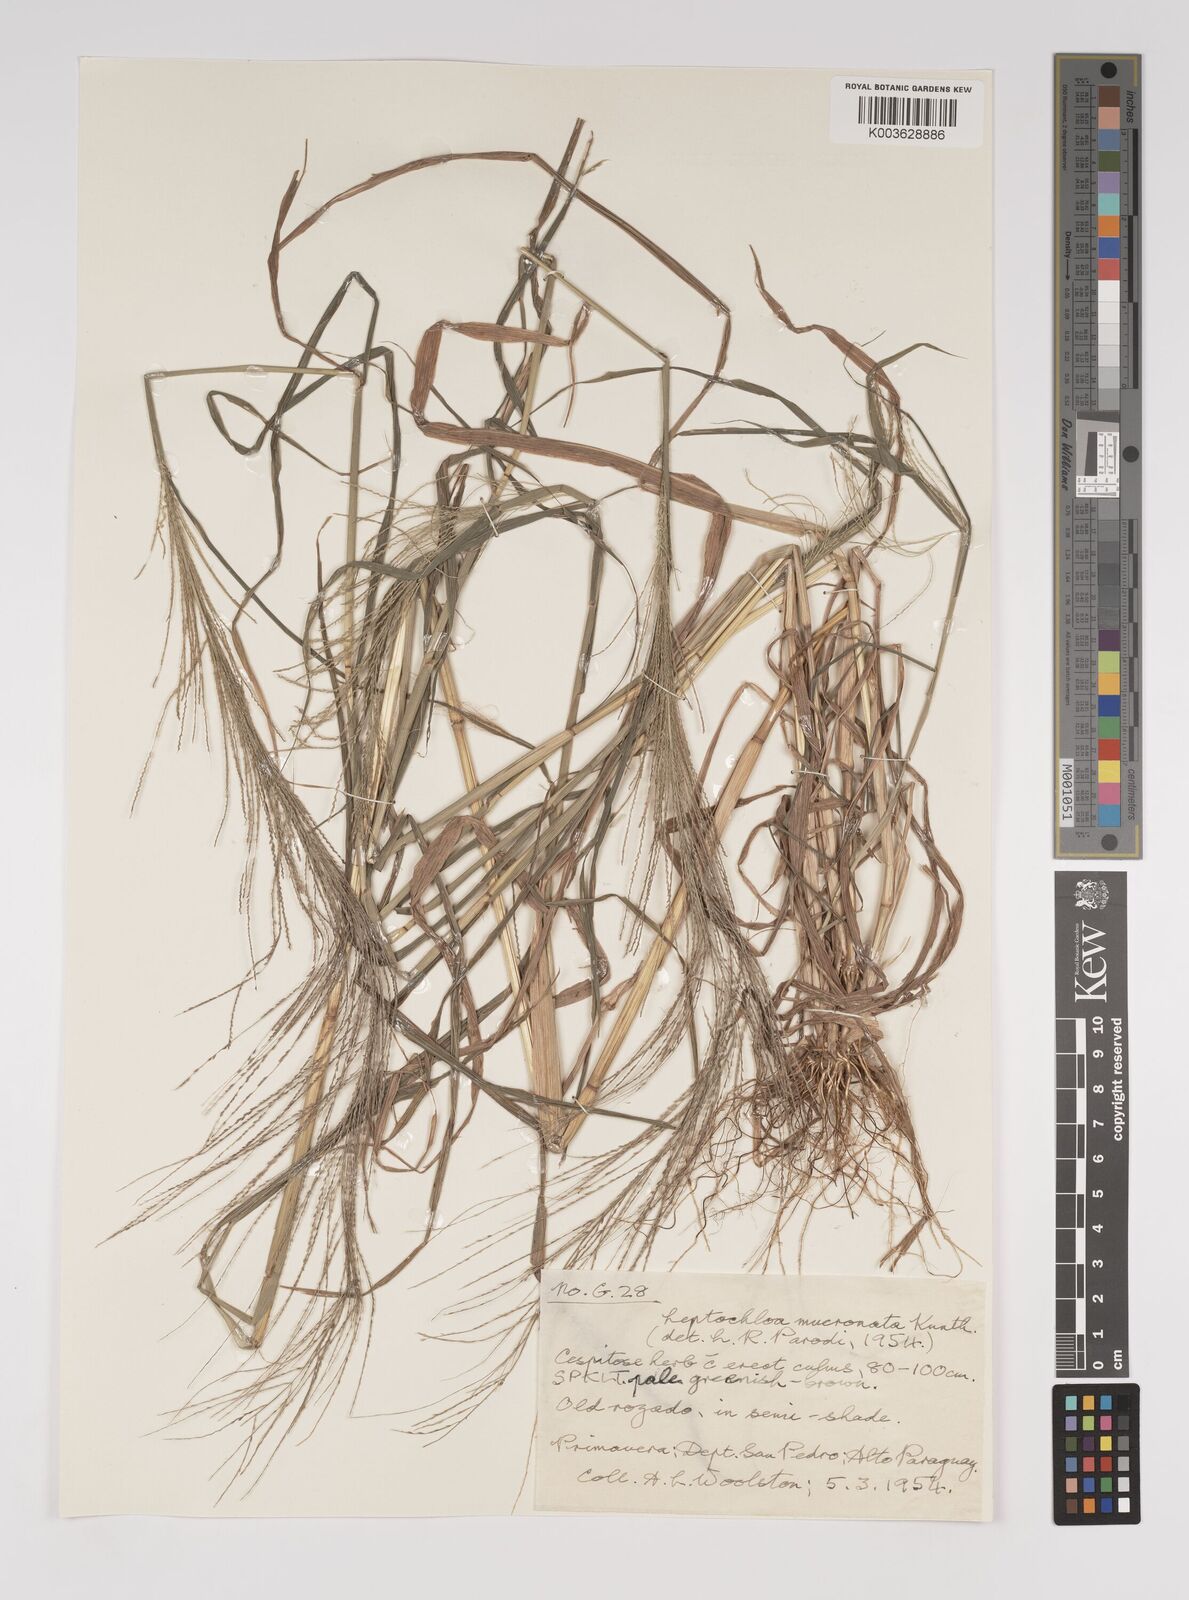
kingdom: Plantae
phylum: Tracheophyta
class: Liliopsida
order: Poales
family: Poaceae
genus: Leptochloa
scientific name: Leptochloa panicea
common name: Mucronate sprangletop
